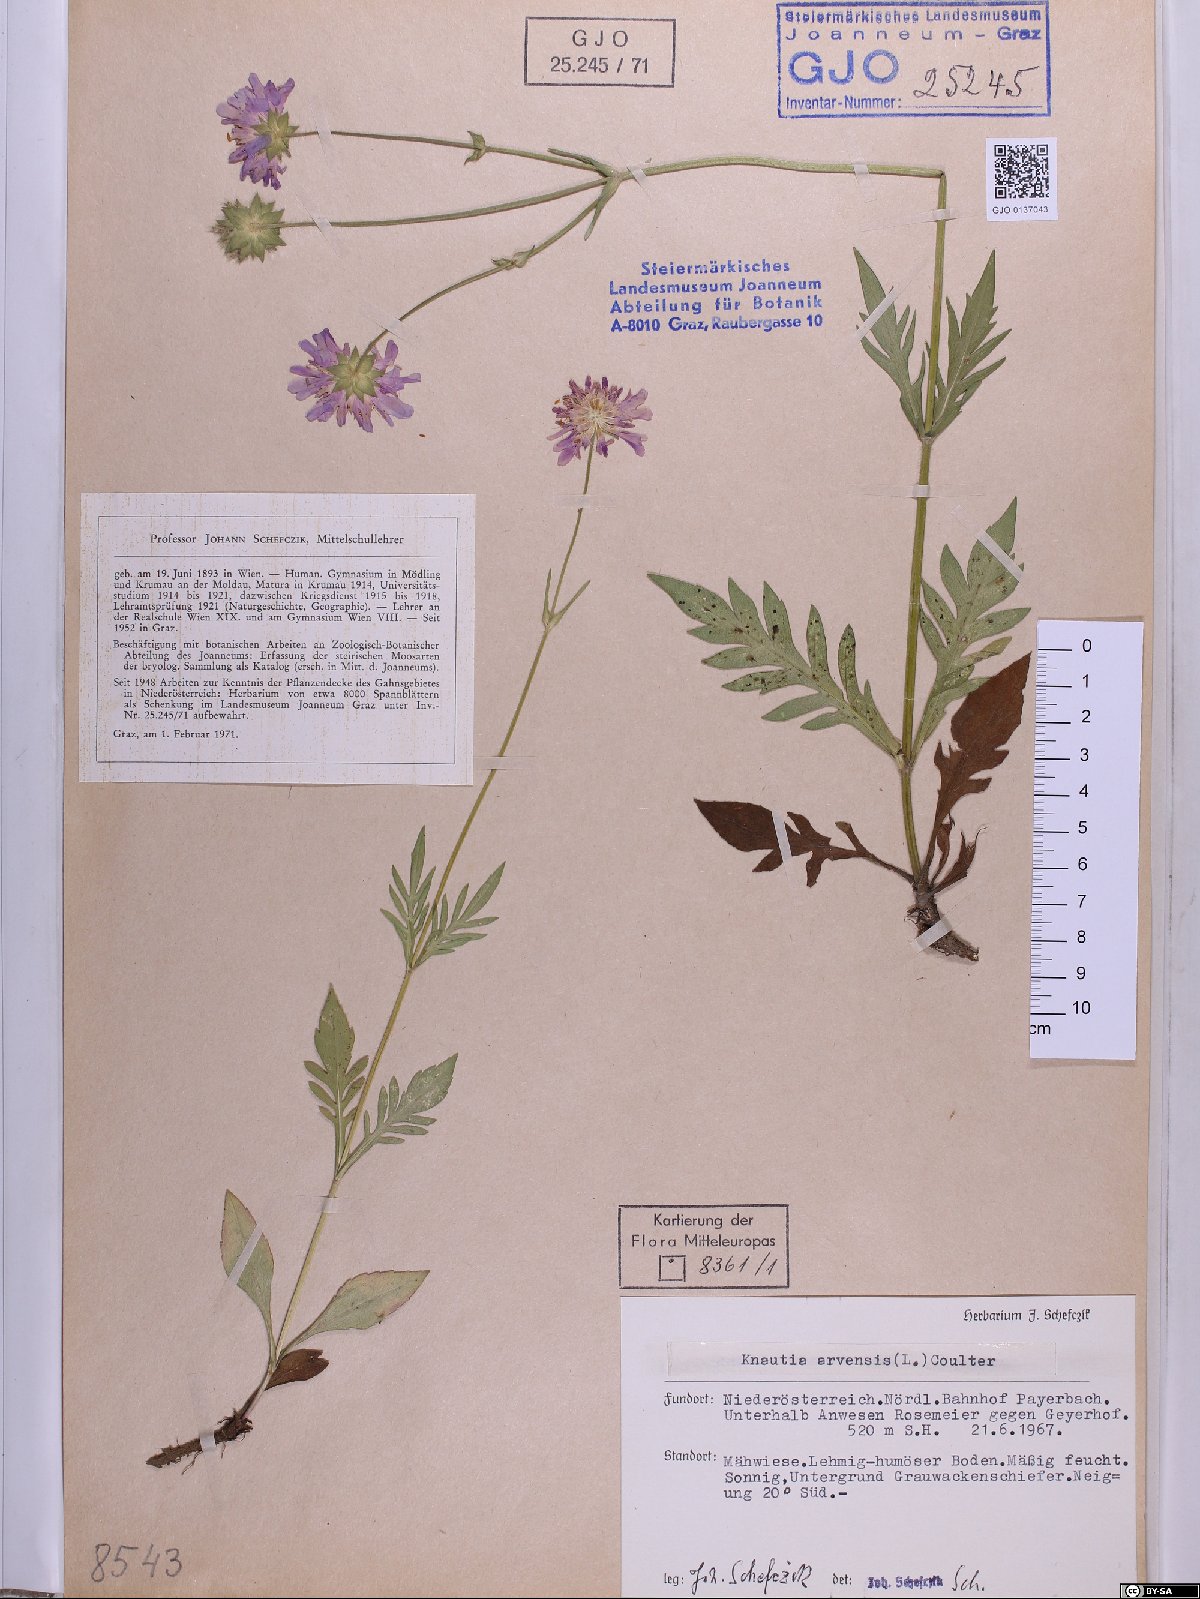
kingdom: Plantae
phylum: Tracheophyta
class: Magnoliopsida
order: Dipsacales
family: Caprifoliaceae
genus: Knautia
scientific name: Knautia arvensis
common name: Field scabiosa
